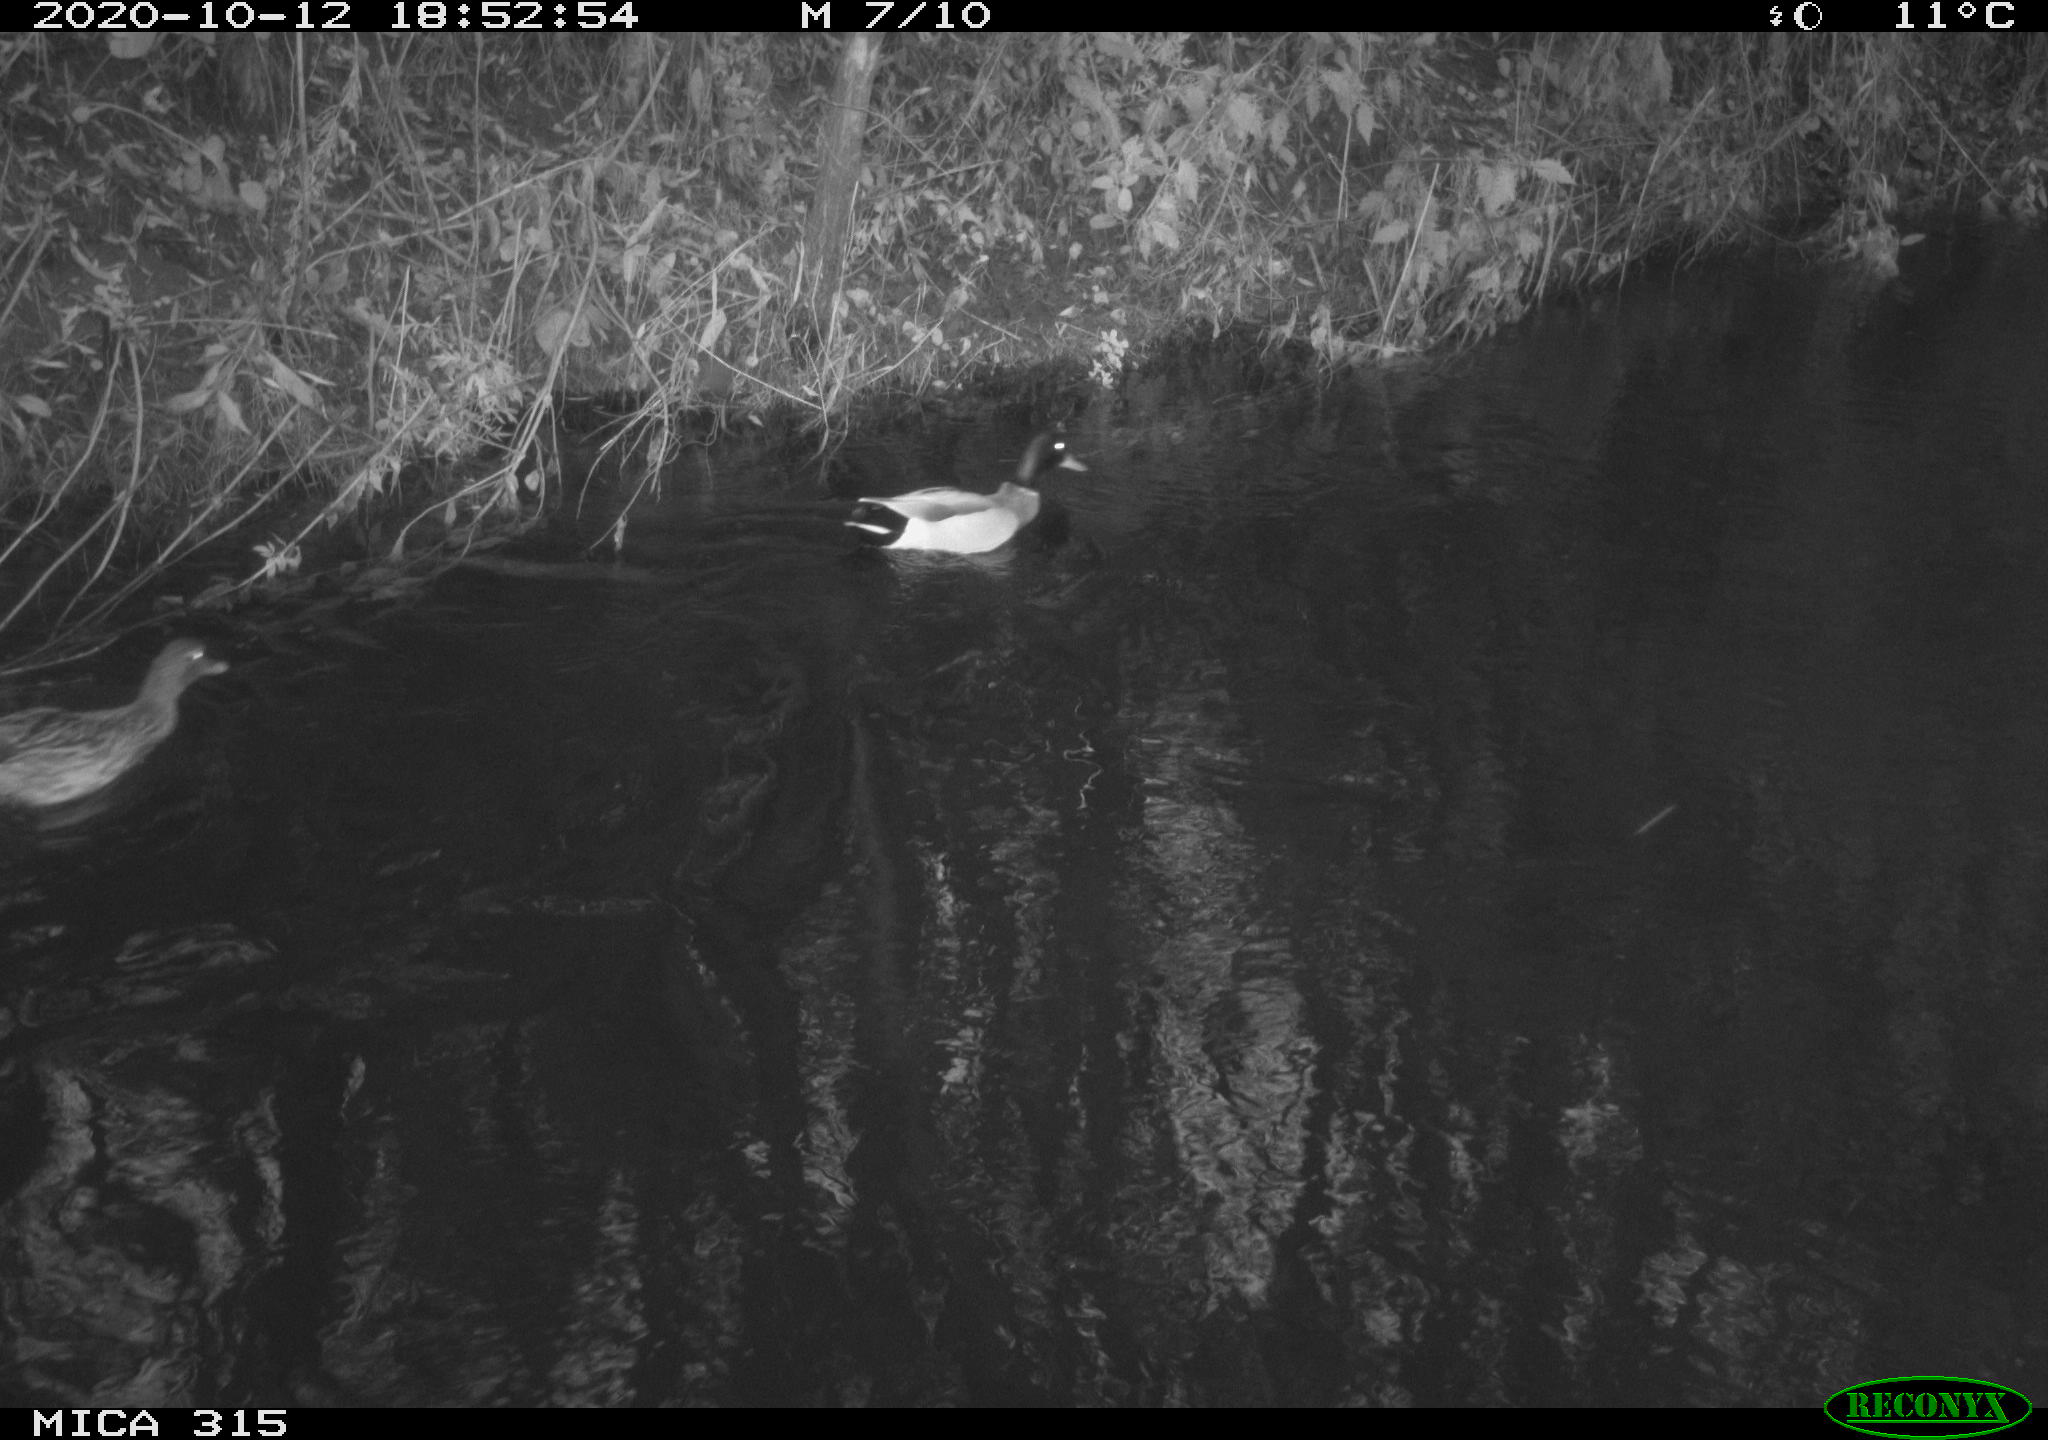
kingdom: Animalia
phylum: Chordata
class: Aves
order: Anseriformes
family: Anatidae
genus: Anas
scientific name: Anas platyrhynchos
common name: Mallard
